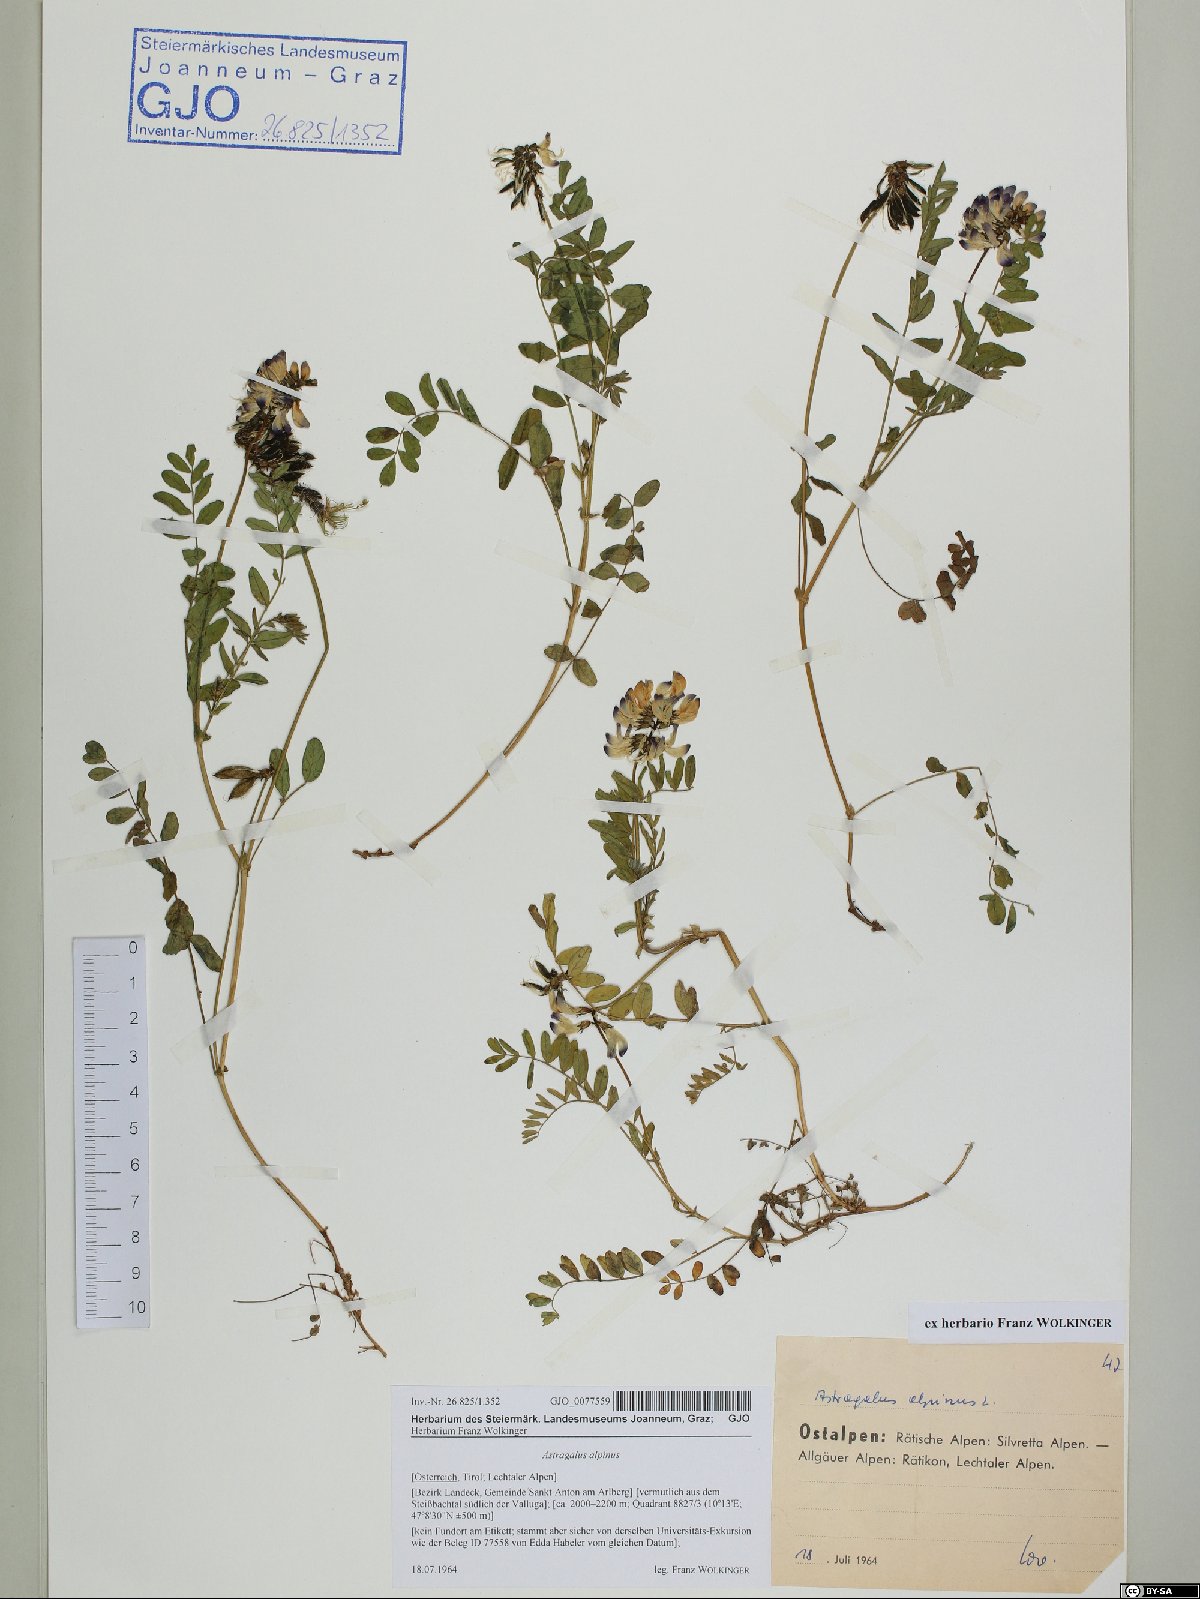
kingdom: Plantae
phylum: Tracheophyta
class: Magnoliopsida
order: Fabales
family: Fabaceae
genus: Astragalus
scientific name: Astragalus alpinus
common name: Alpine milk-vetch
